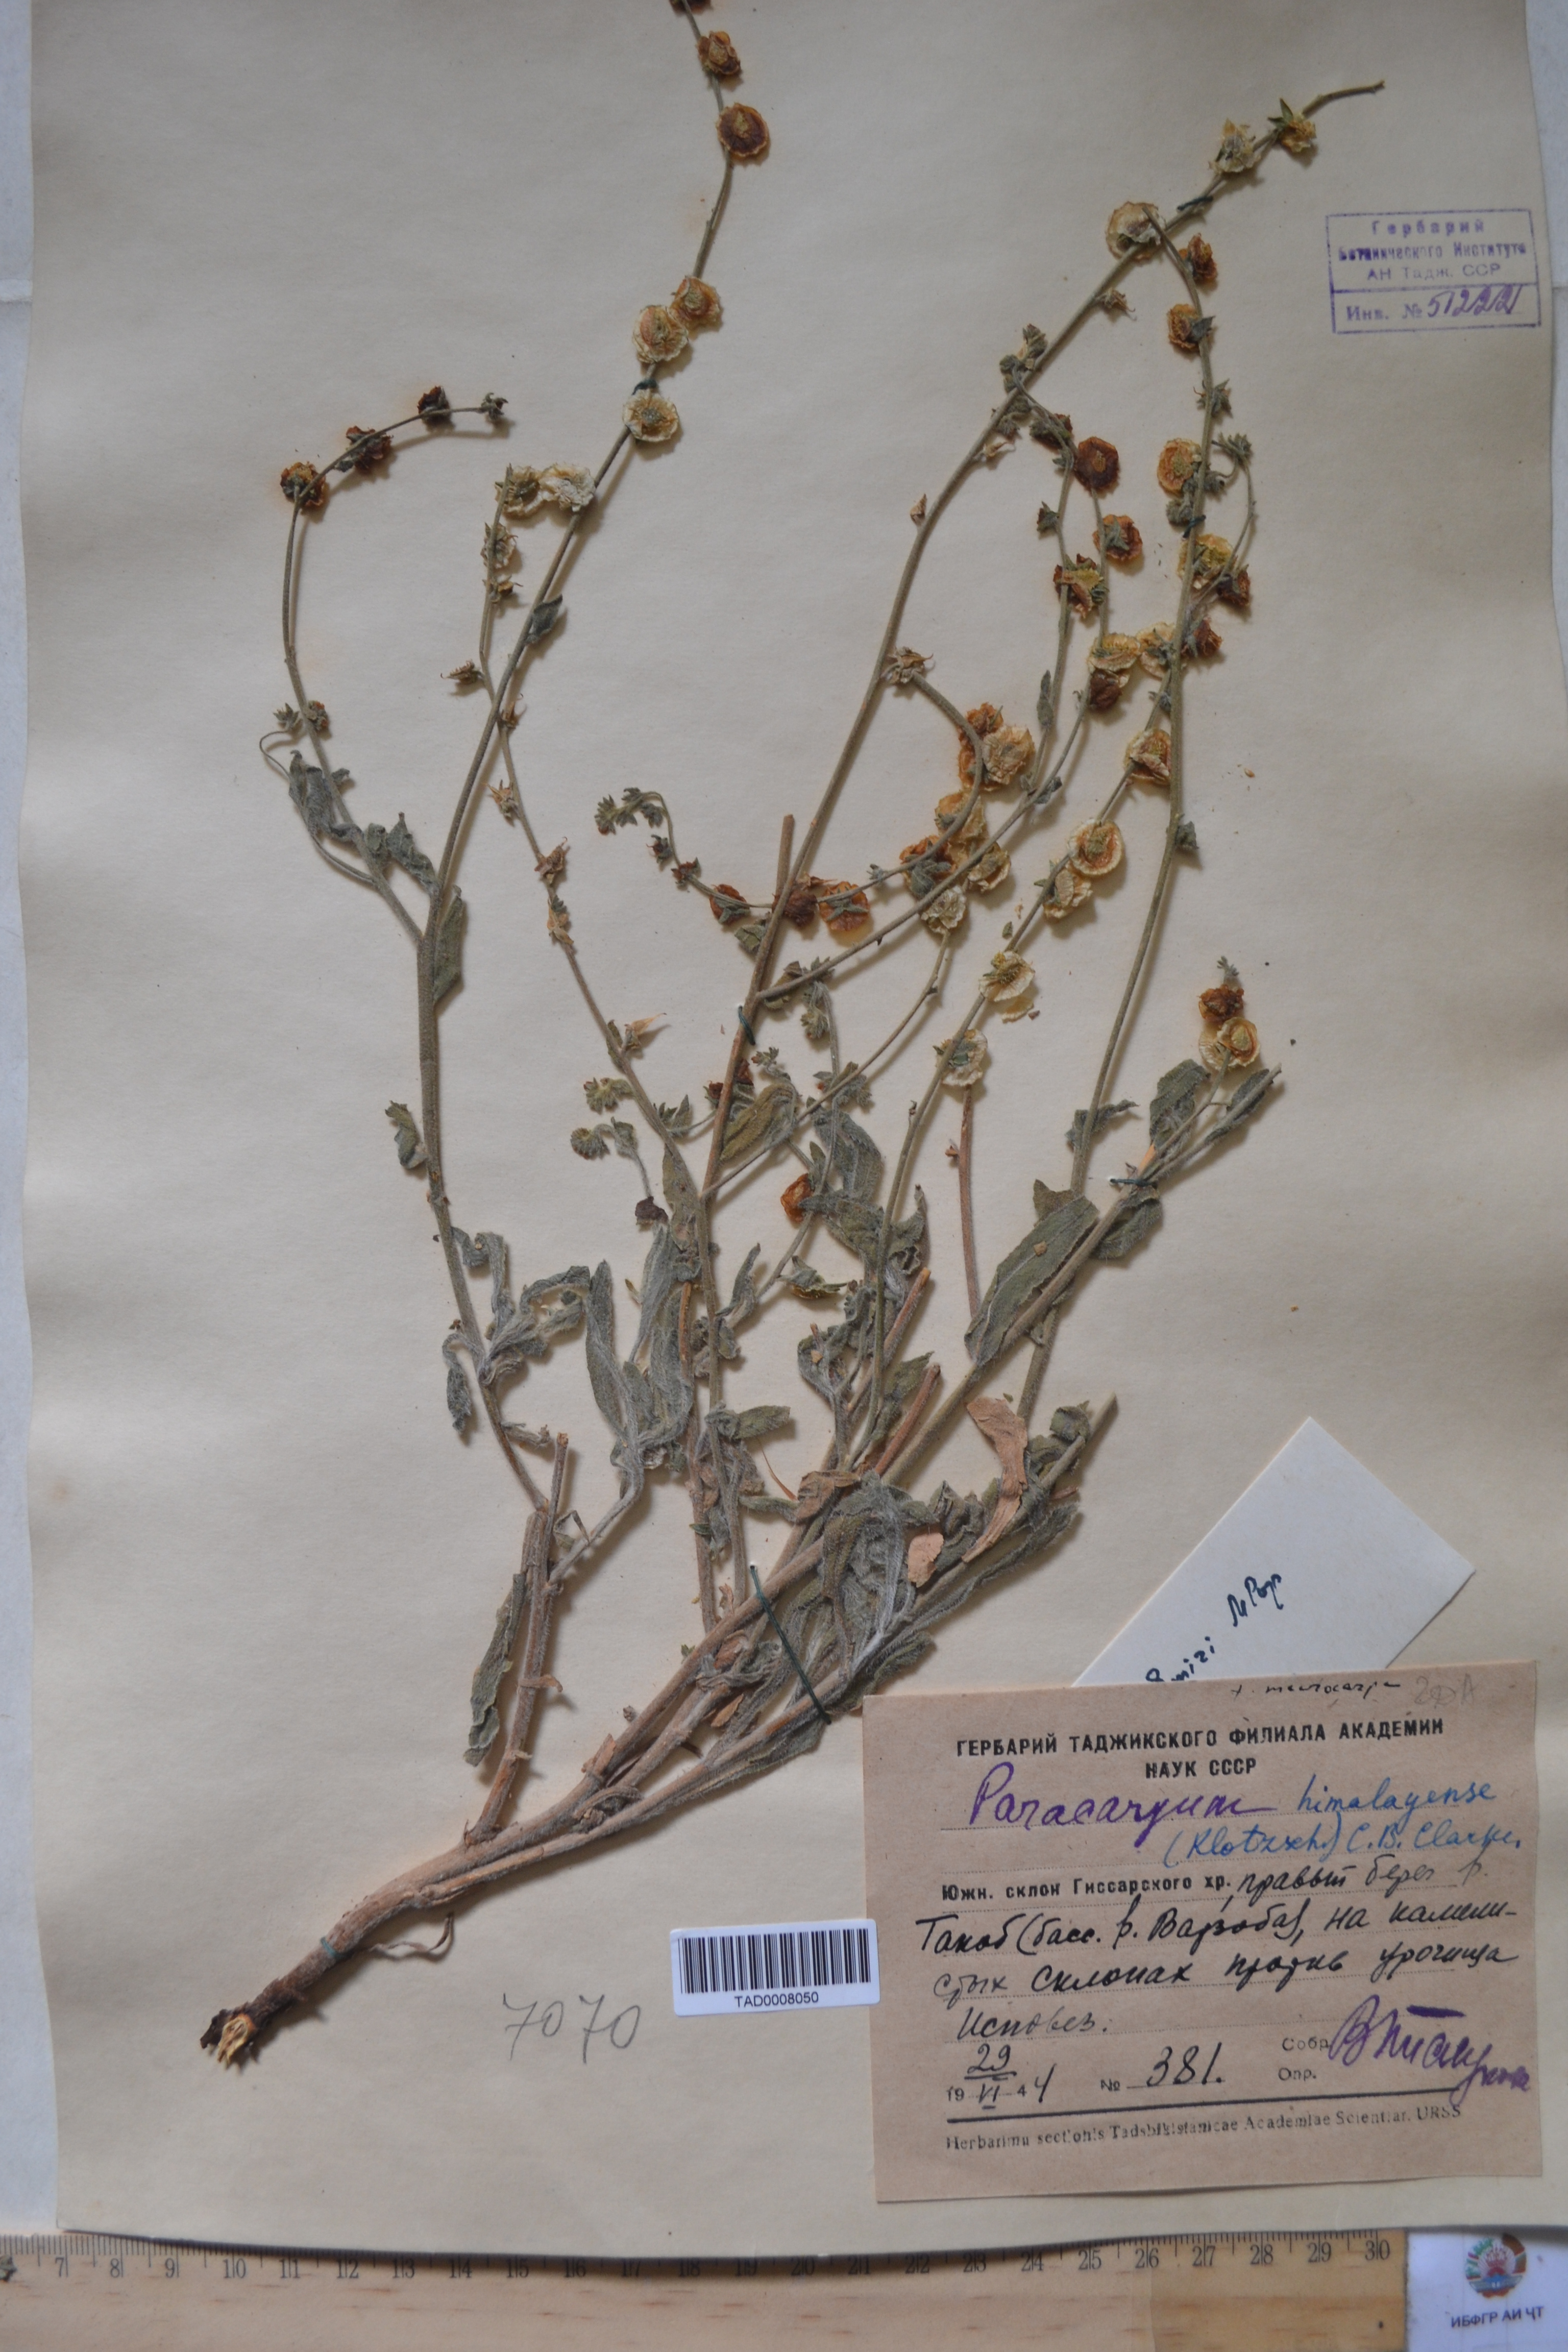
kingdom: Plantae
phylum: Tracheophyta
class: Magnoliopsida
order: Boraginales
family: Boraginaceae
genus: Paracaryum
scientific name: Paracaryum himalayense
